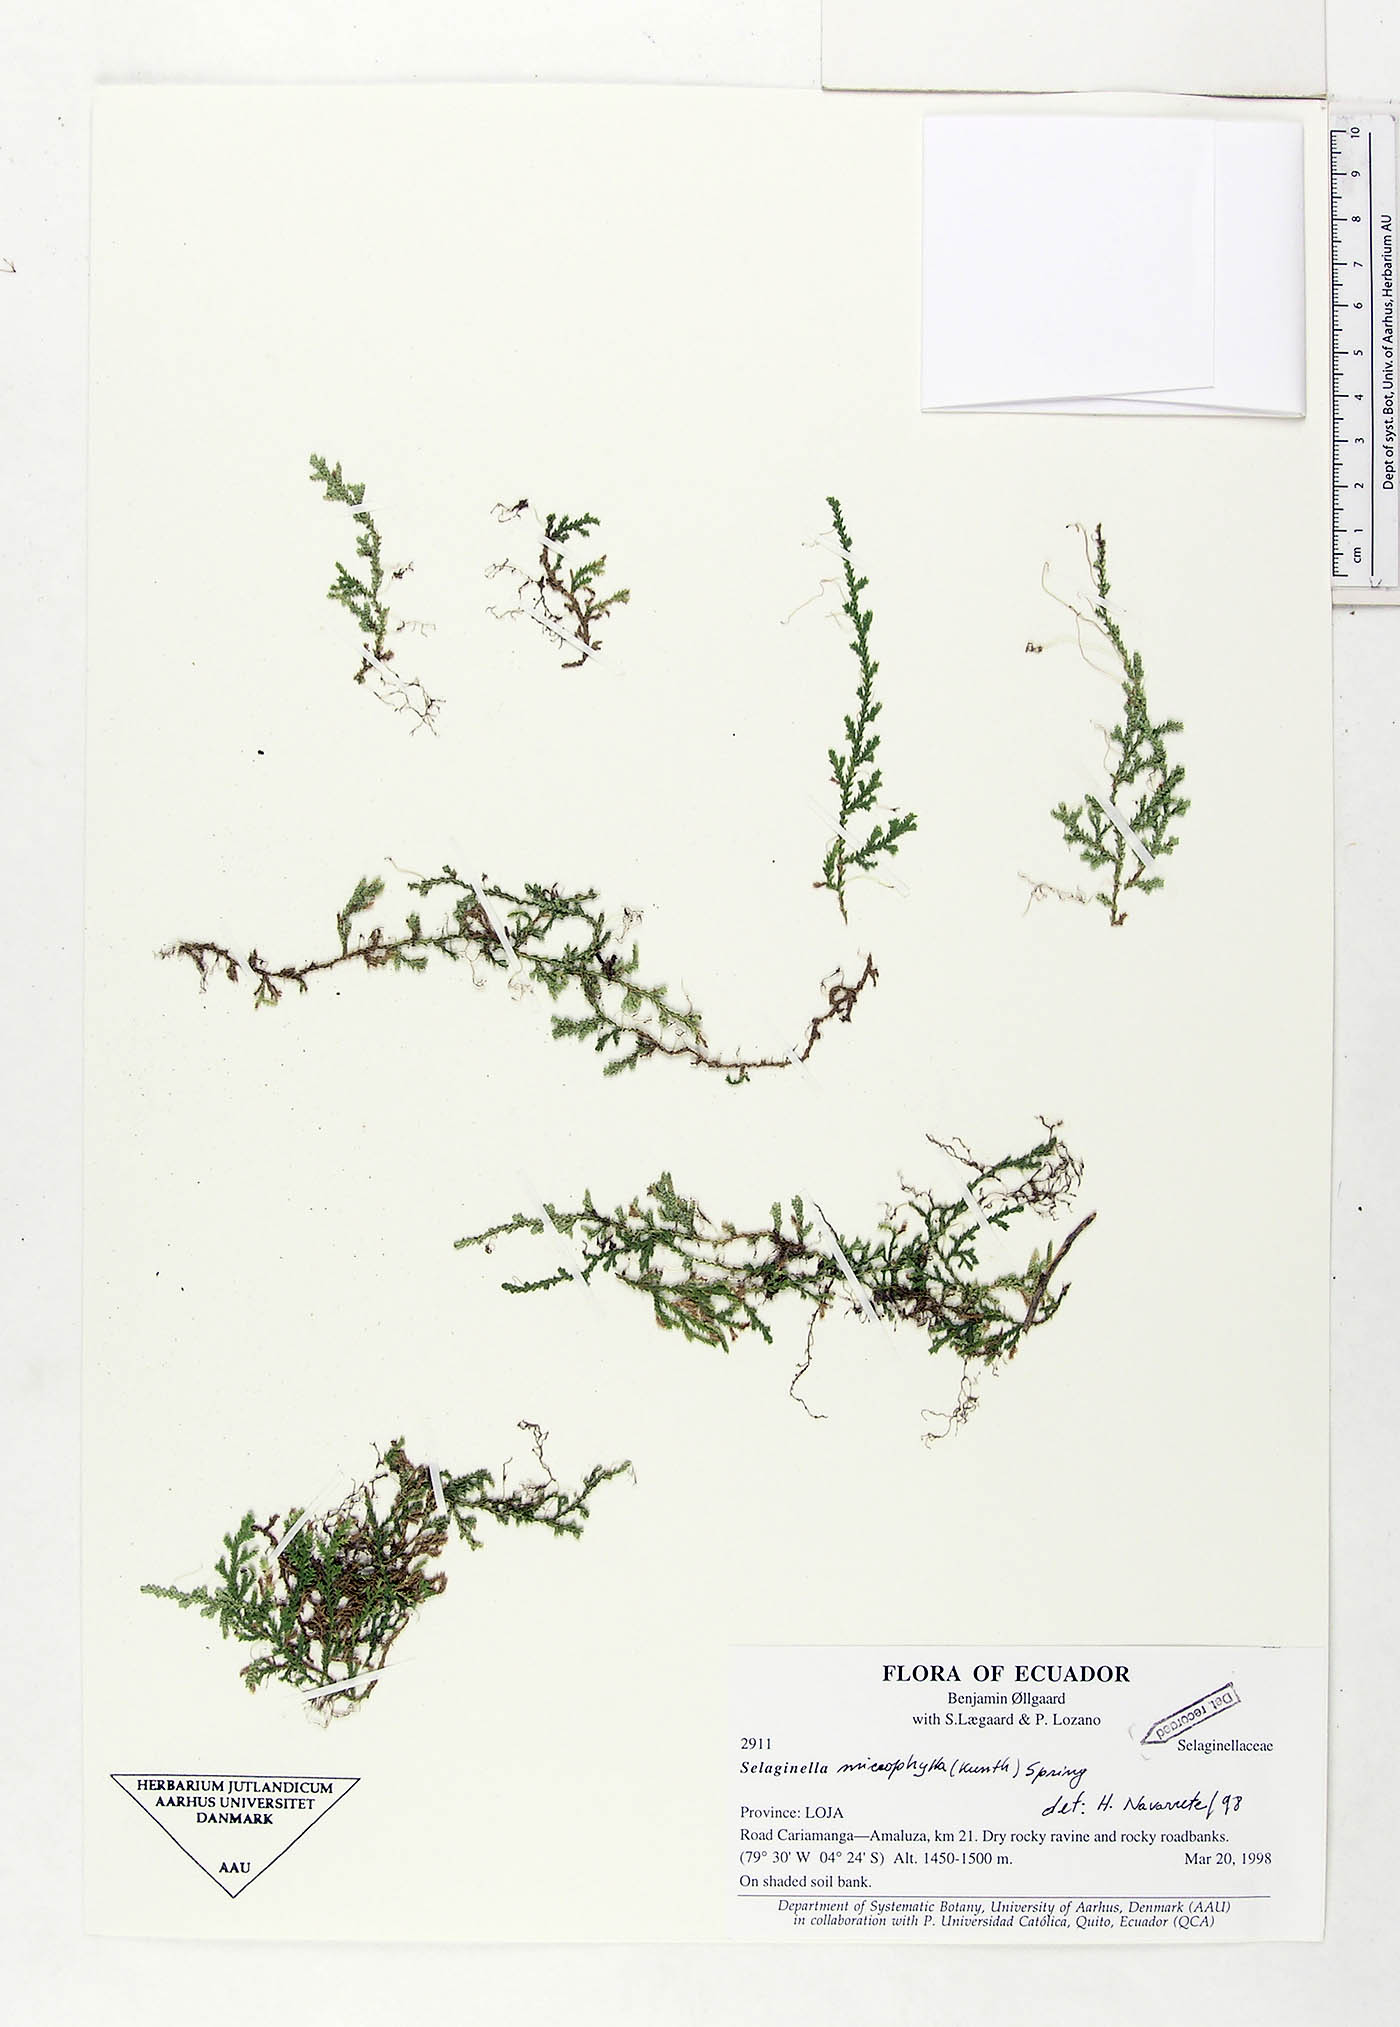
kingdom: Plantae
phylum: Tracheophyta
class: Lycopodiopsida
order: Selaginellales
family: Selaginellaceae
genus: Selaginella
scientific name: Selaginella microphylla
